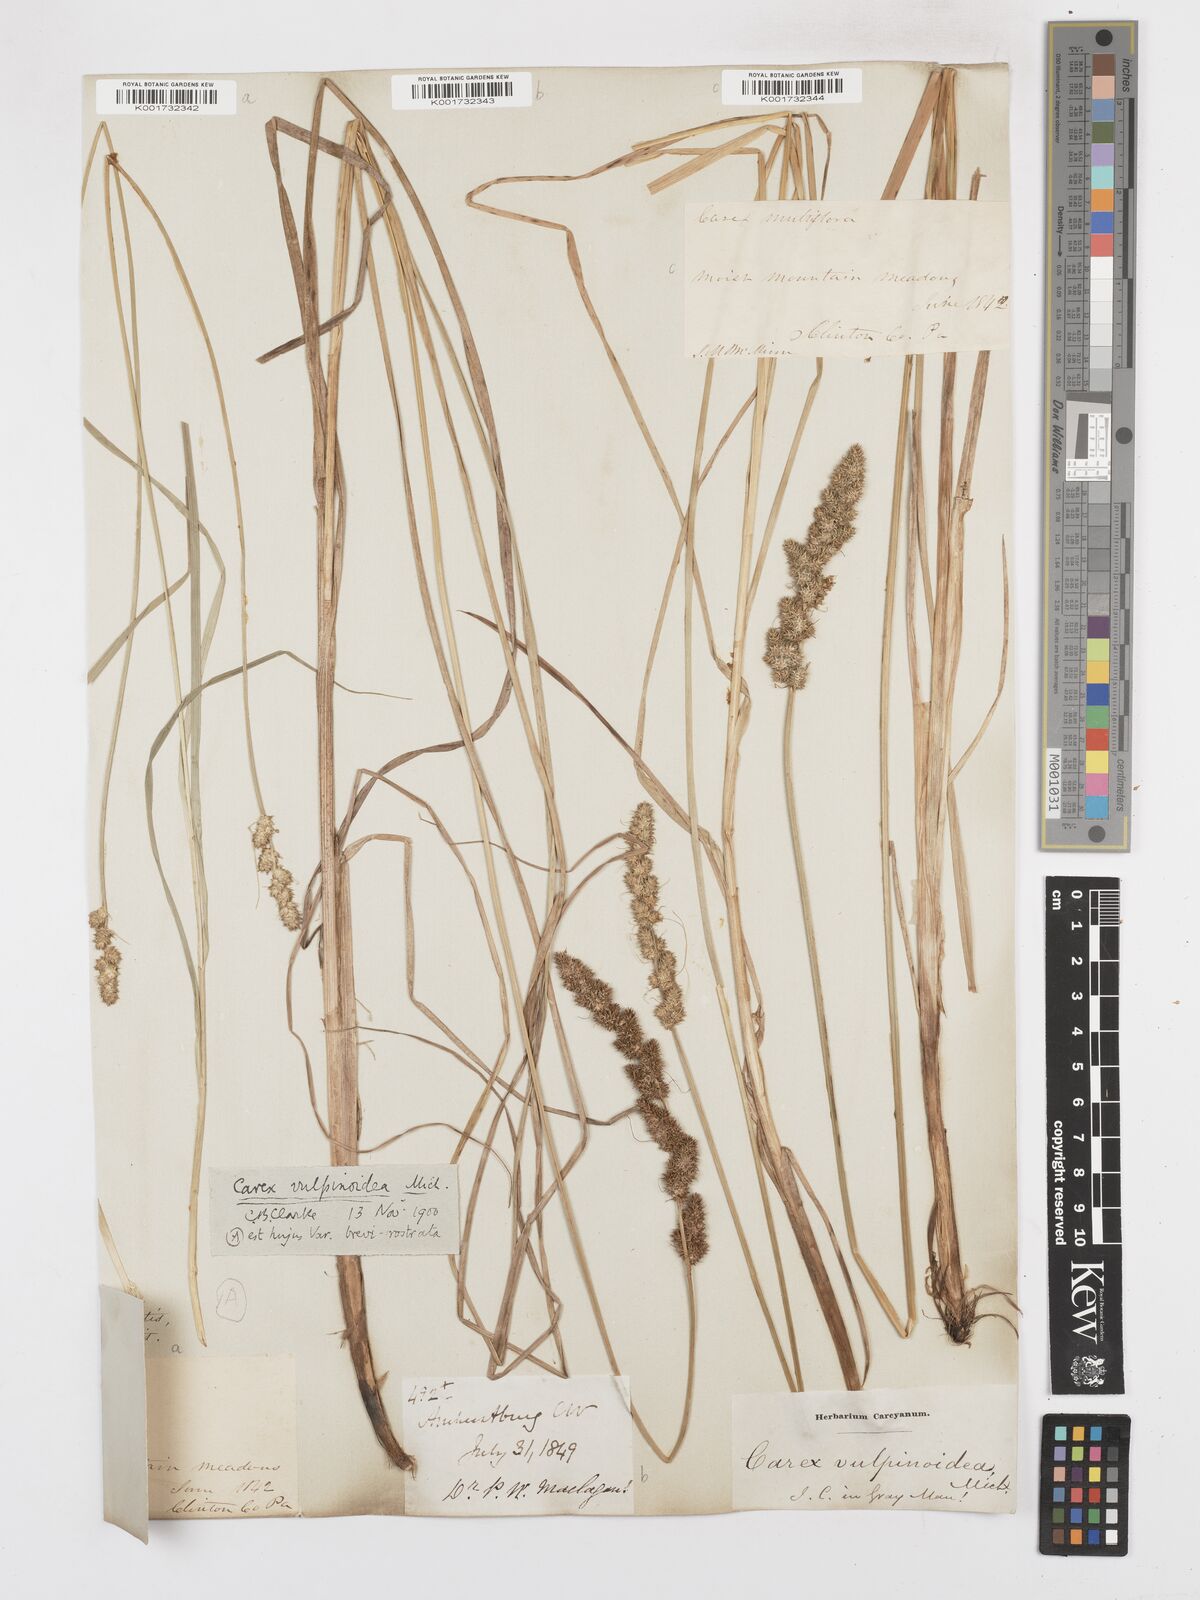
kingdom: Plantae
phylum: Tracheophyta
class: Liliopsida
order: Poales
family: Cyperaceae
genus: Carex
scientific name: Carex vulpinoidea
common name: American fox-sedge
